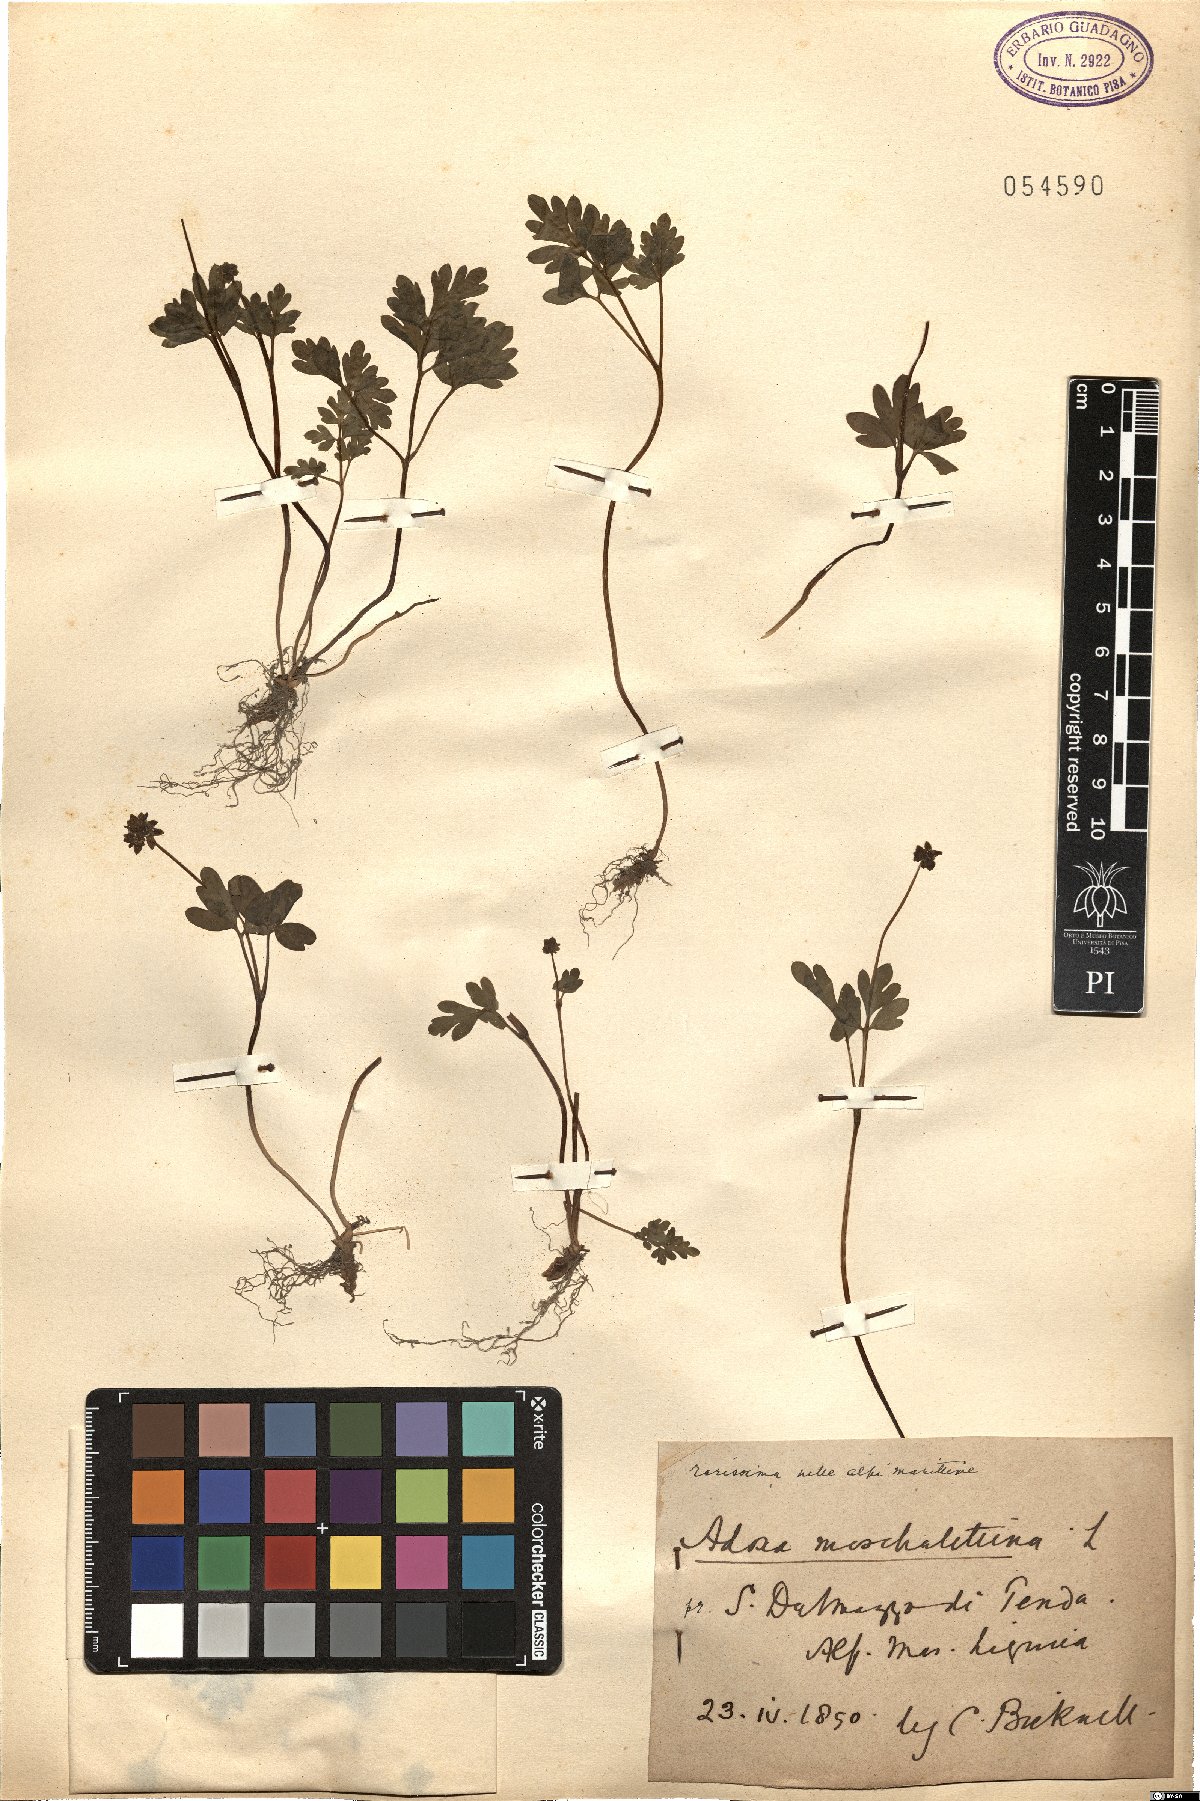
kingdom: Plantae
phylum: Tracheophyta
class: Magnoliopsida
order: Dipsacales
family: Viburnaceae
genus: Adoxa
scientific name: Adoxa moschatellina
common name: Moschatel
